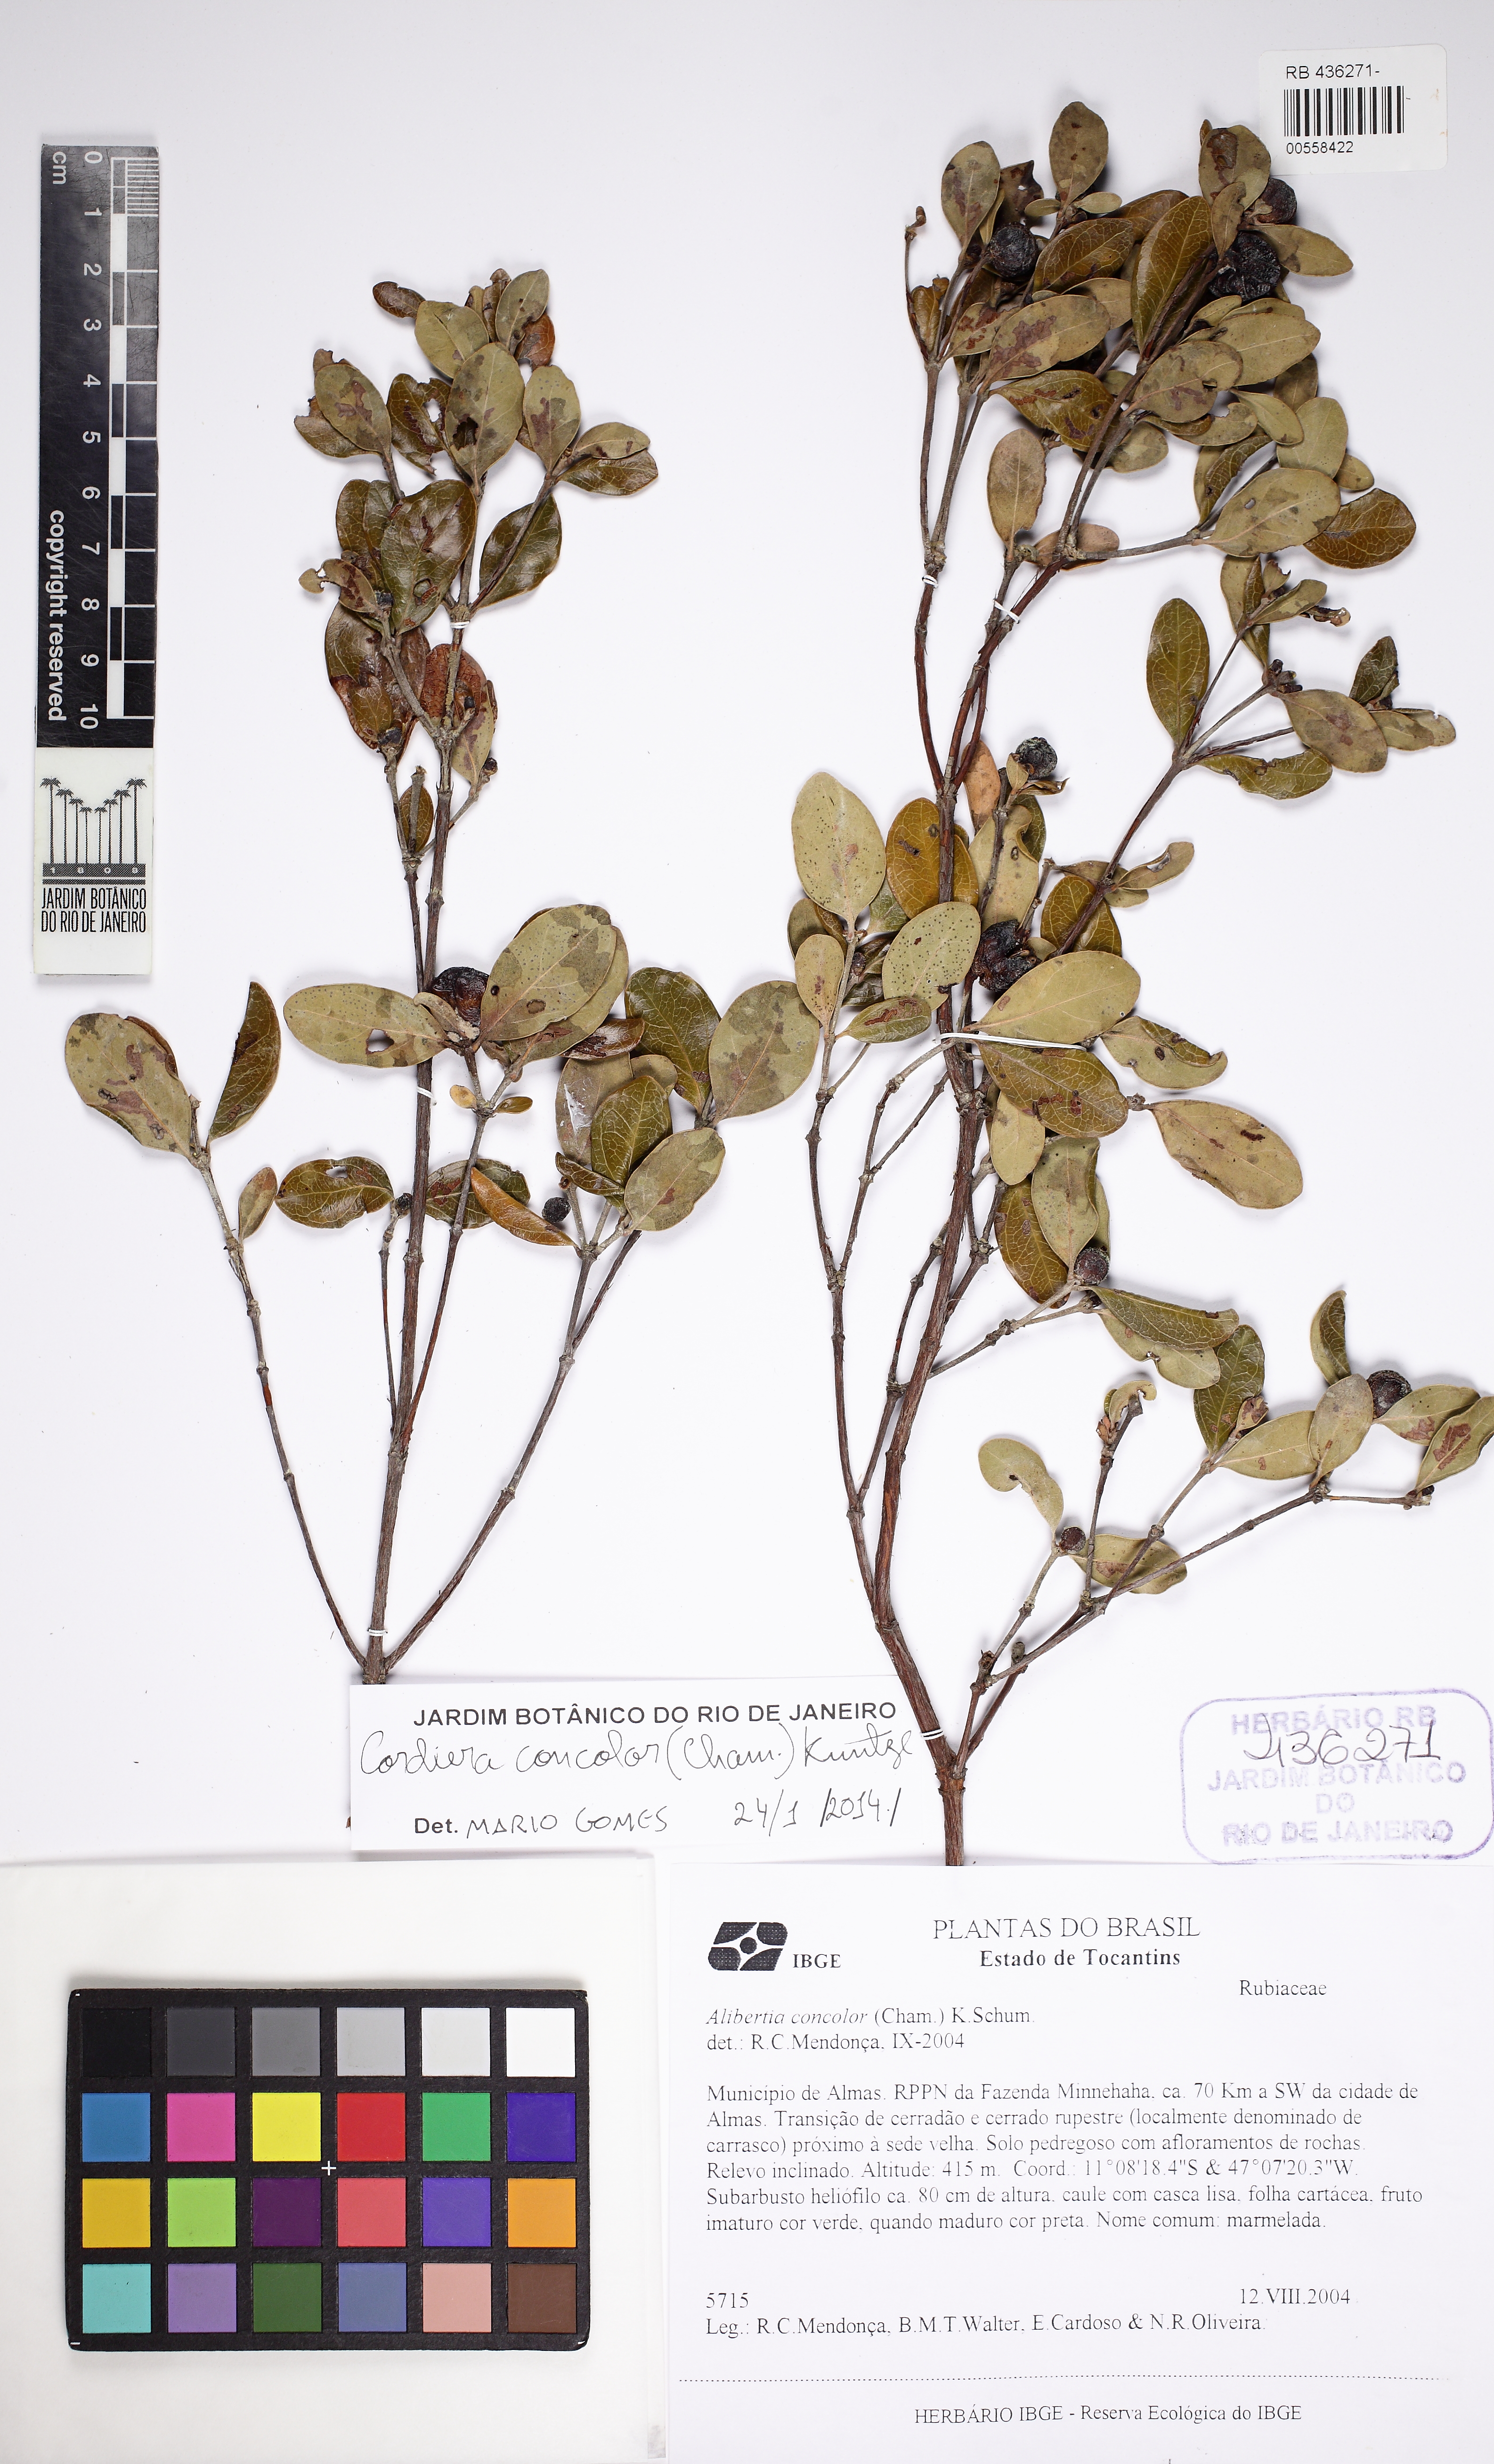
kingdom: Plantae
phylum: Tracheophyta
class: Magnoliopsida
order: Gentianales
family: Rubiaceae
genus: Cordiera
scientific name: Cordiera rigida
